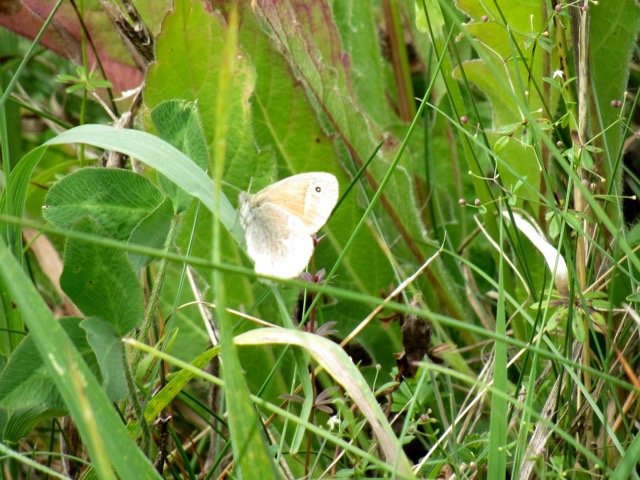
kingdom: Animalia
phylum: Arthropoda
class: Insecta
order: Lepidoptera
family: Nymphalidae
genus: Coenonympha
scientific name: Coenonympha tullia
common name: Large Heath
